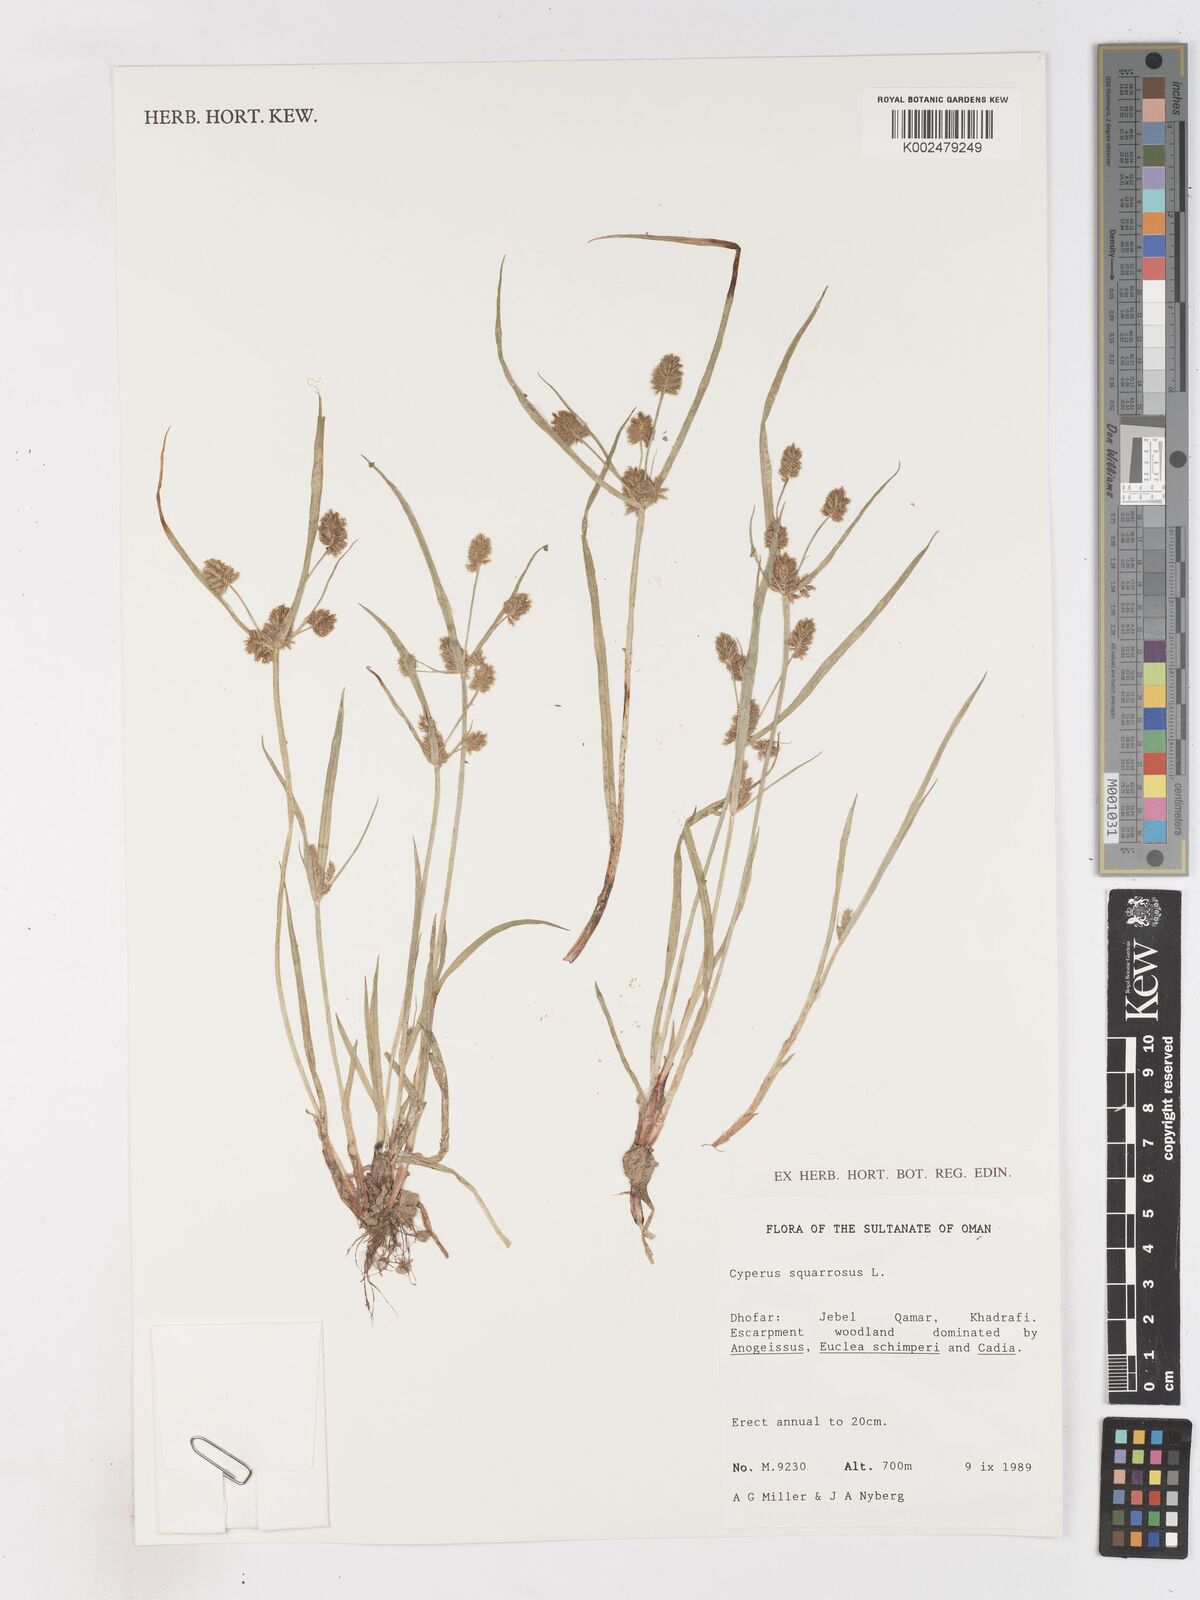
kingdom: Plantae
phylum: Tracheophyta
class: Liliopsida
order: Poales
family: Cyperaceae
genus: Cyperus
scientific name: Cyperus squarrosus
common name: Awned cyperus
